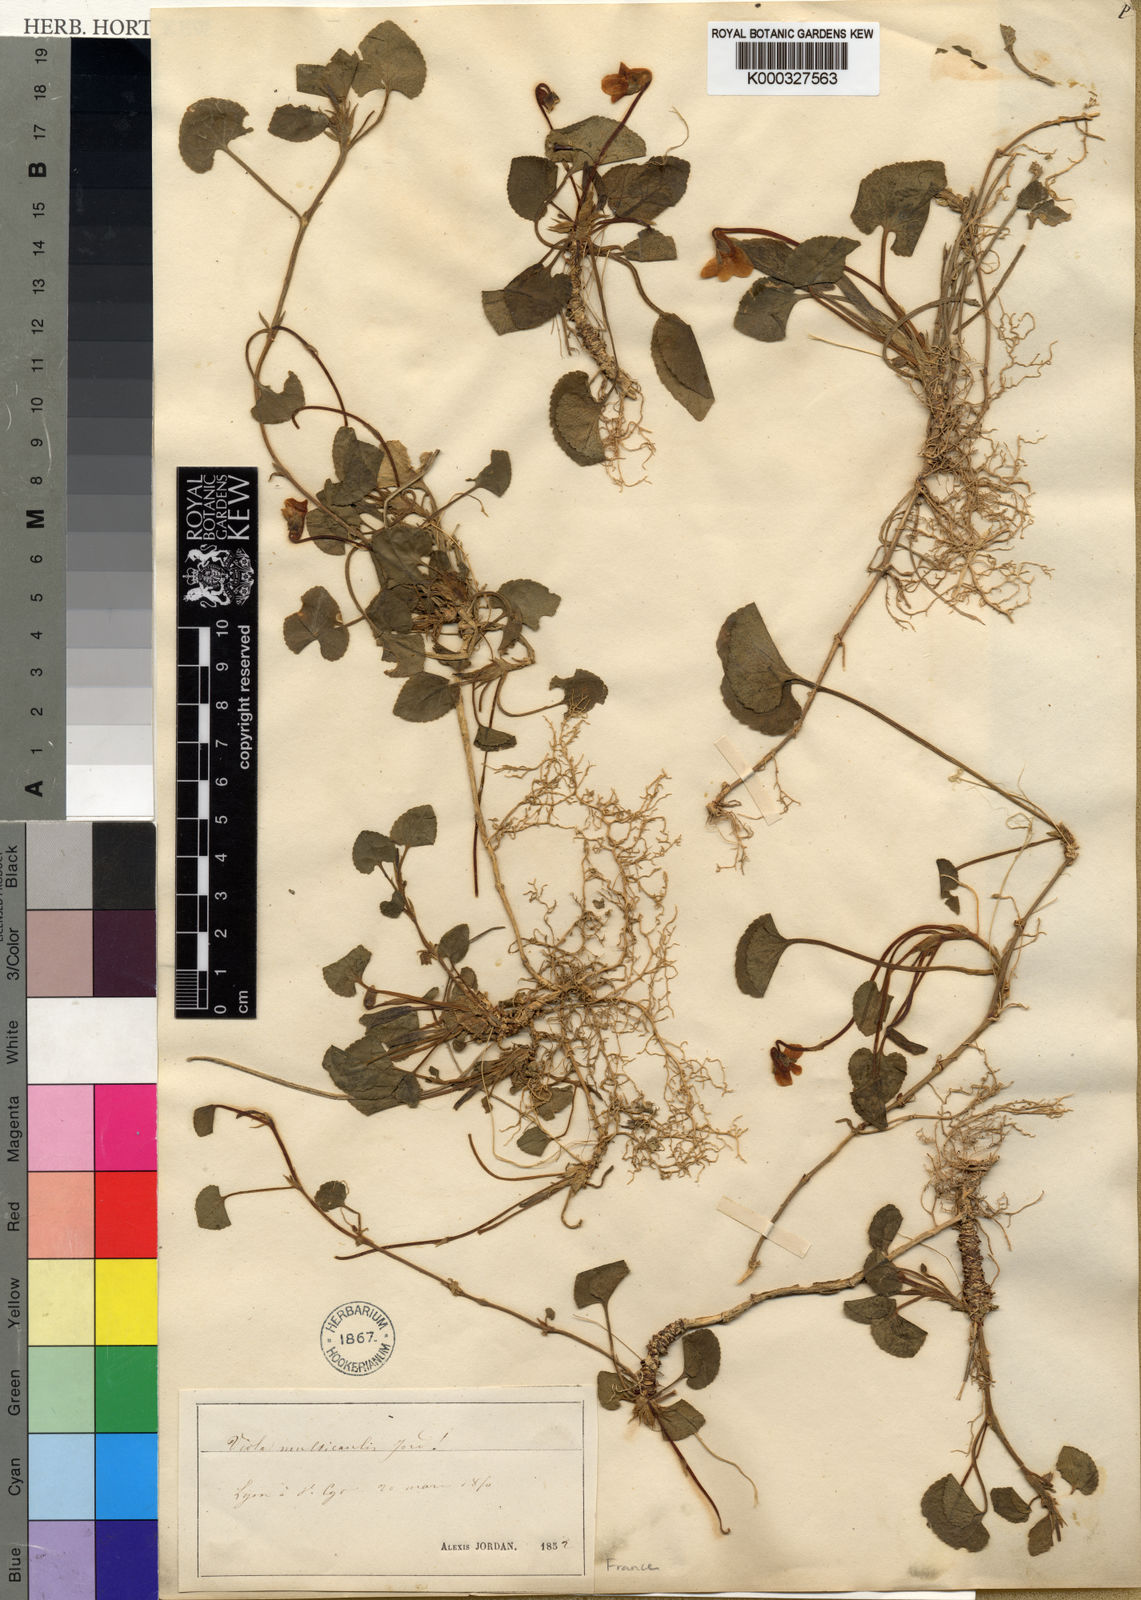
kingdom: Plantae
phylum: Tracheophyta
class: Magnoliopsida
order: Malpighiales
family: Violaceae
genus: Viola
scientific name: Viola basilensis
